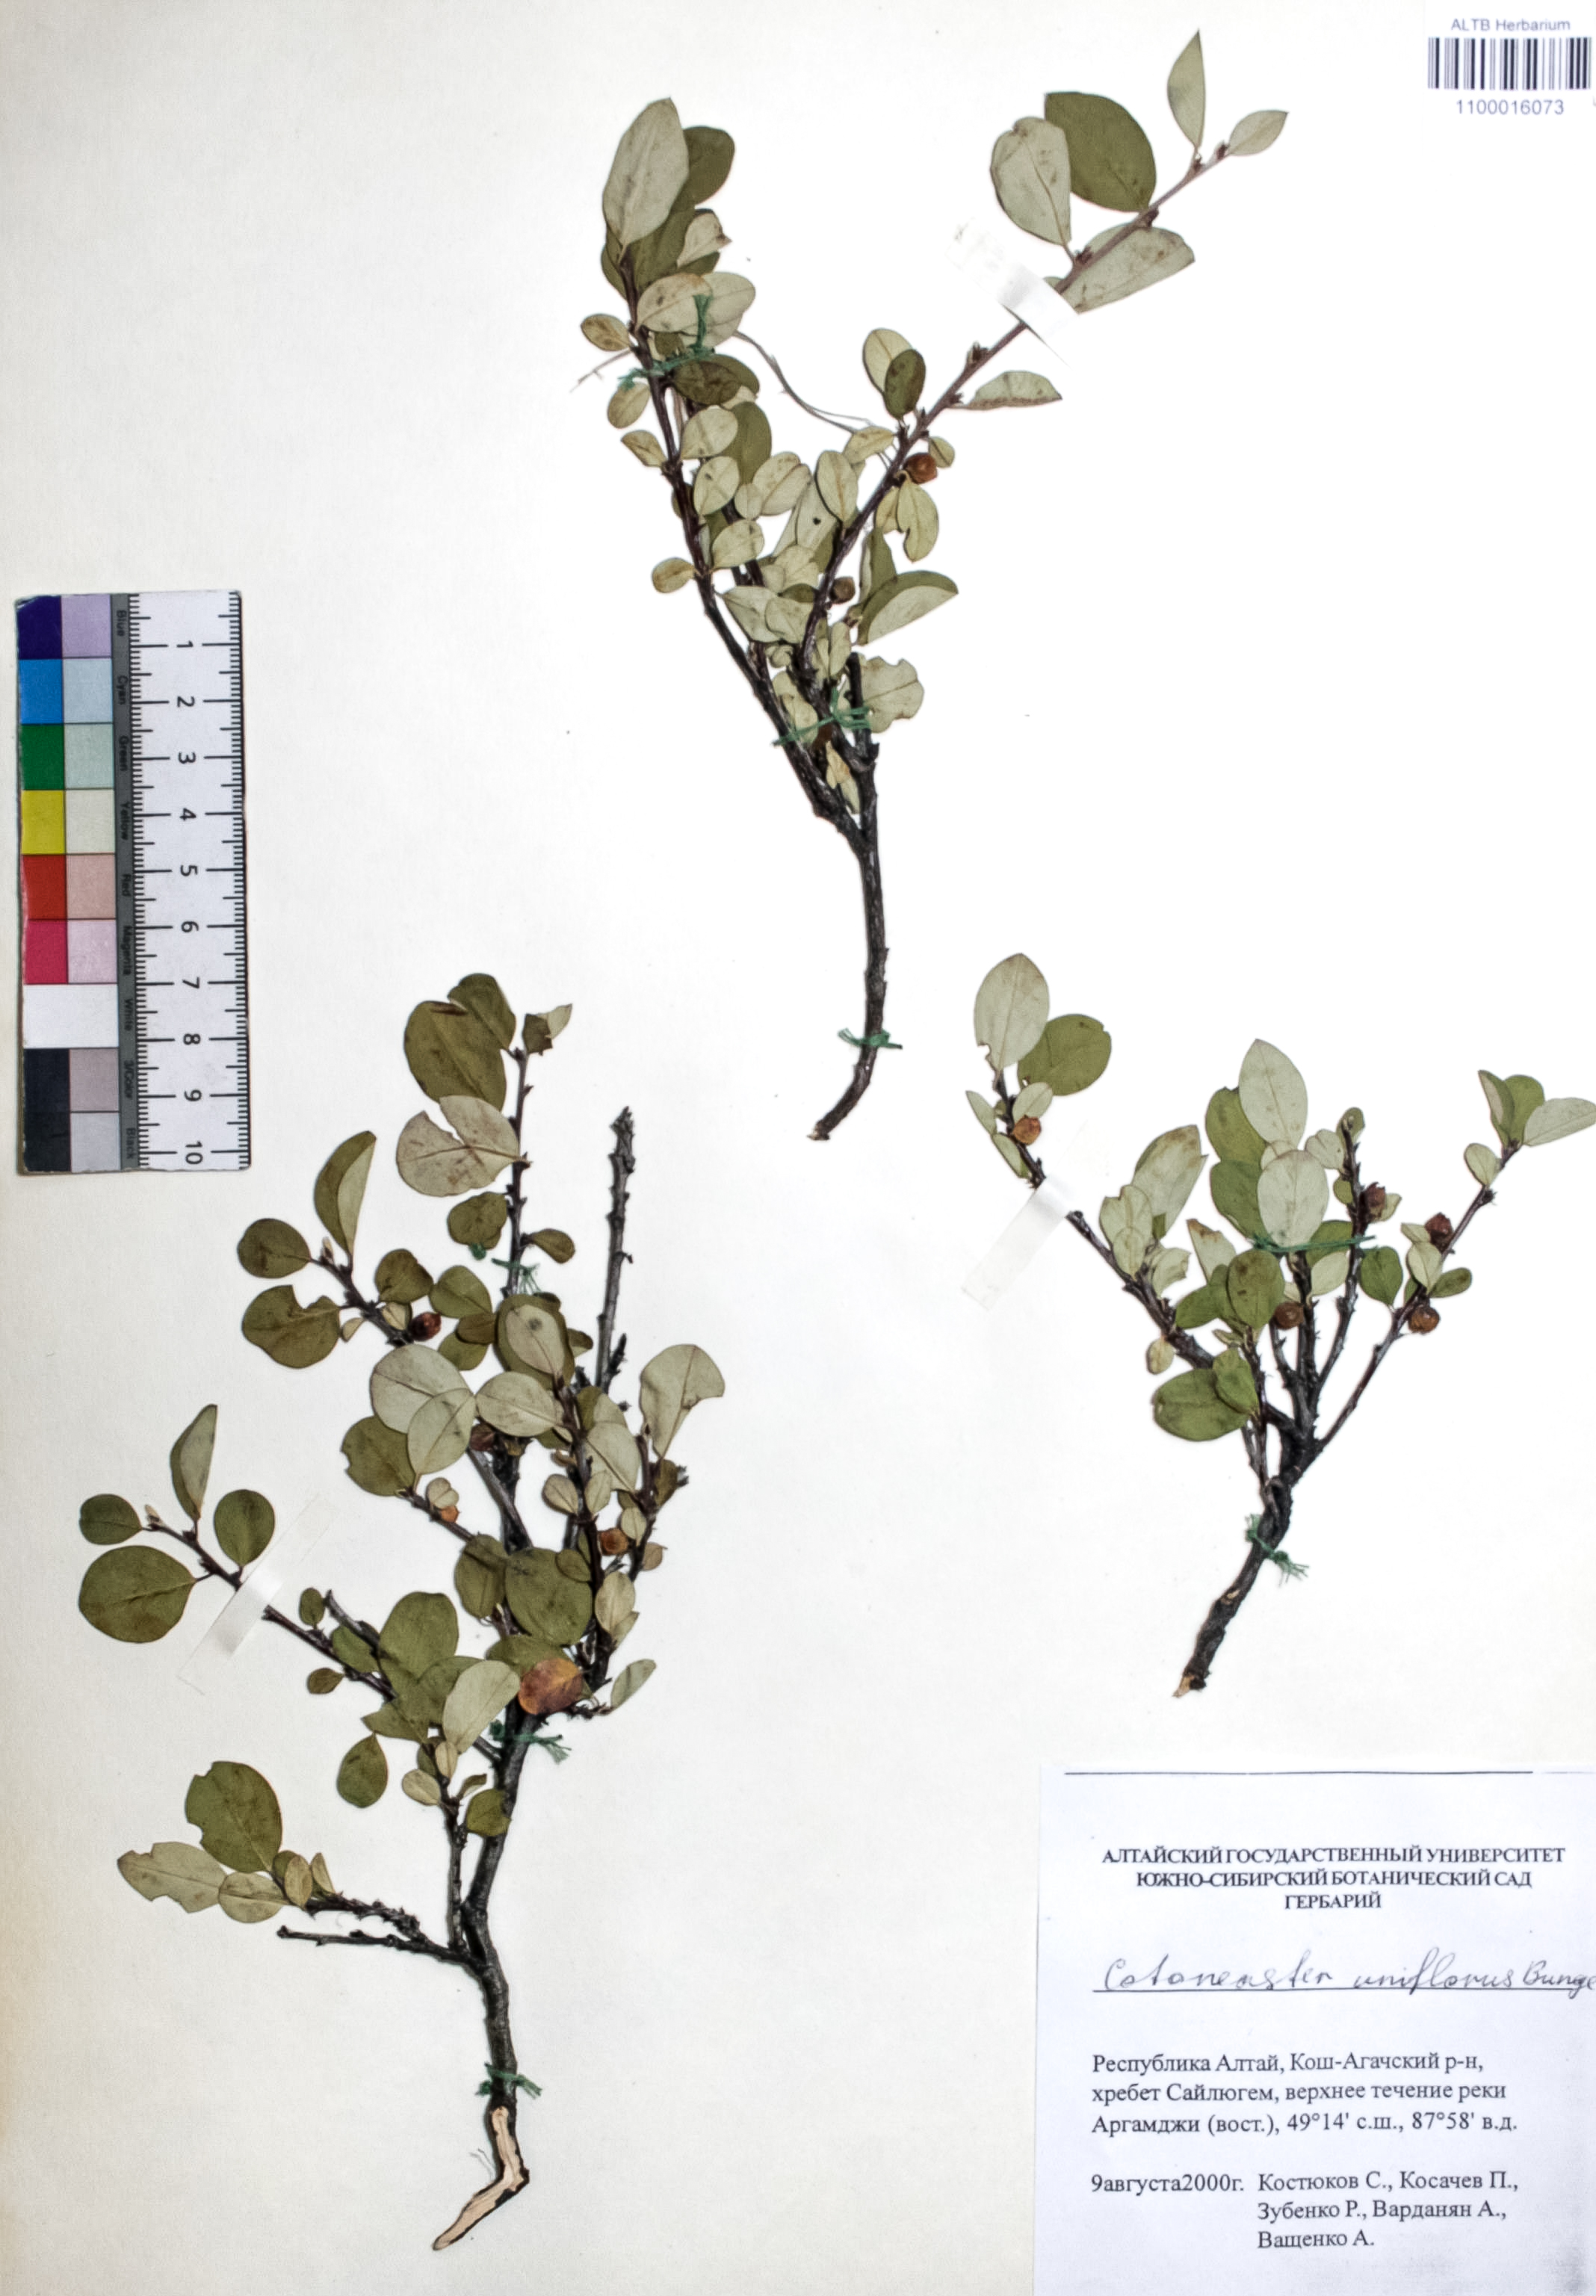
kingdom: Plantae
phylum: Tracheophyta
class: Magnoliopsida
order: Rosales
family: Rosaceae
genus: Cotoneaster
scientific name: Cotoneaster uniflorus
